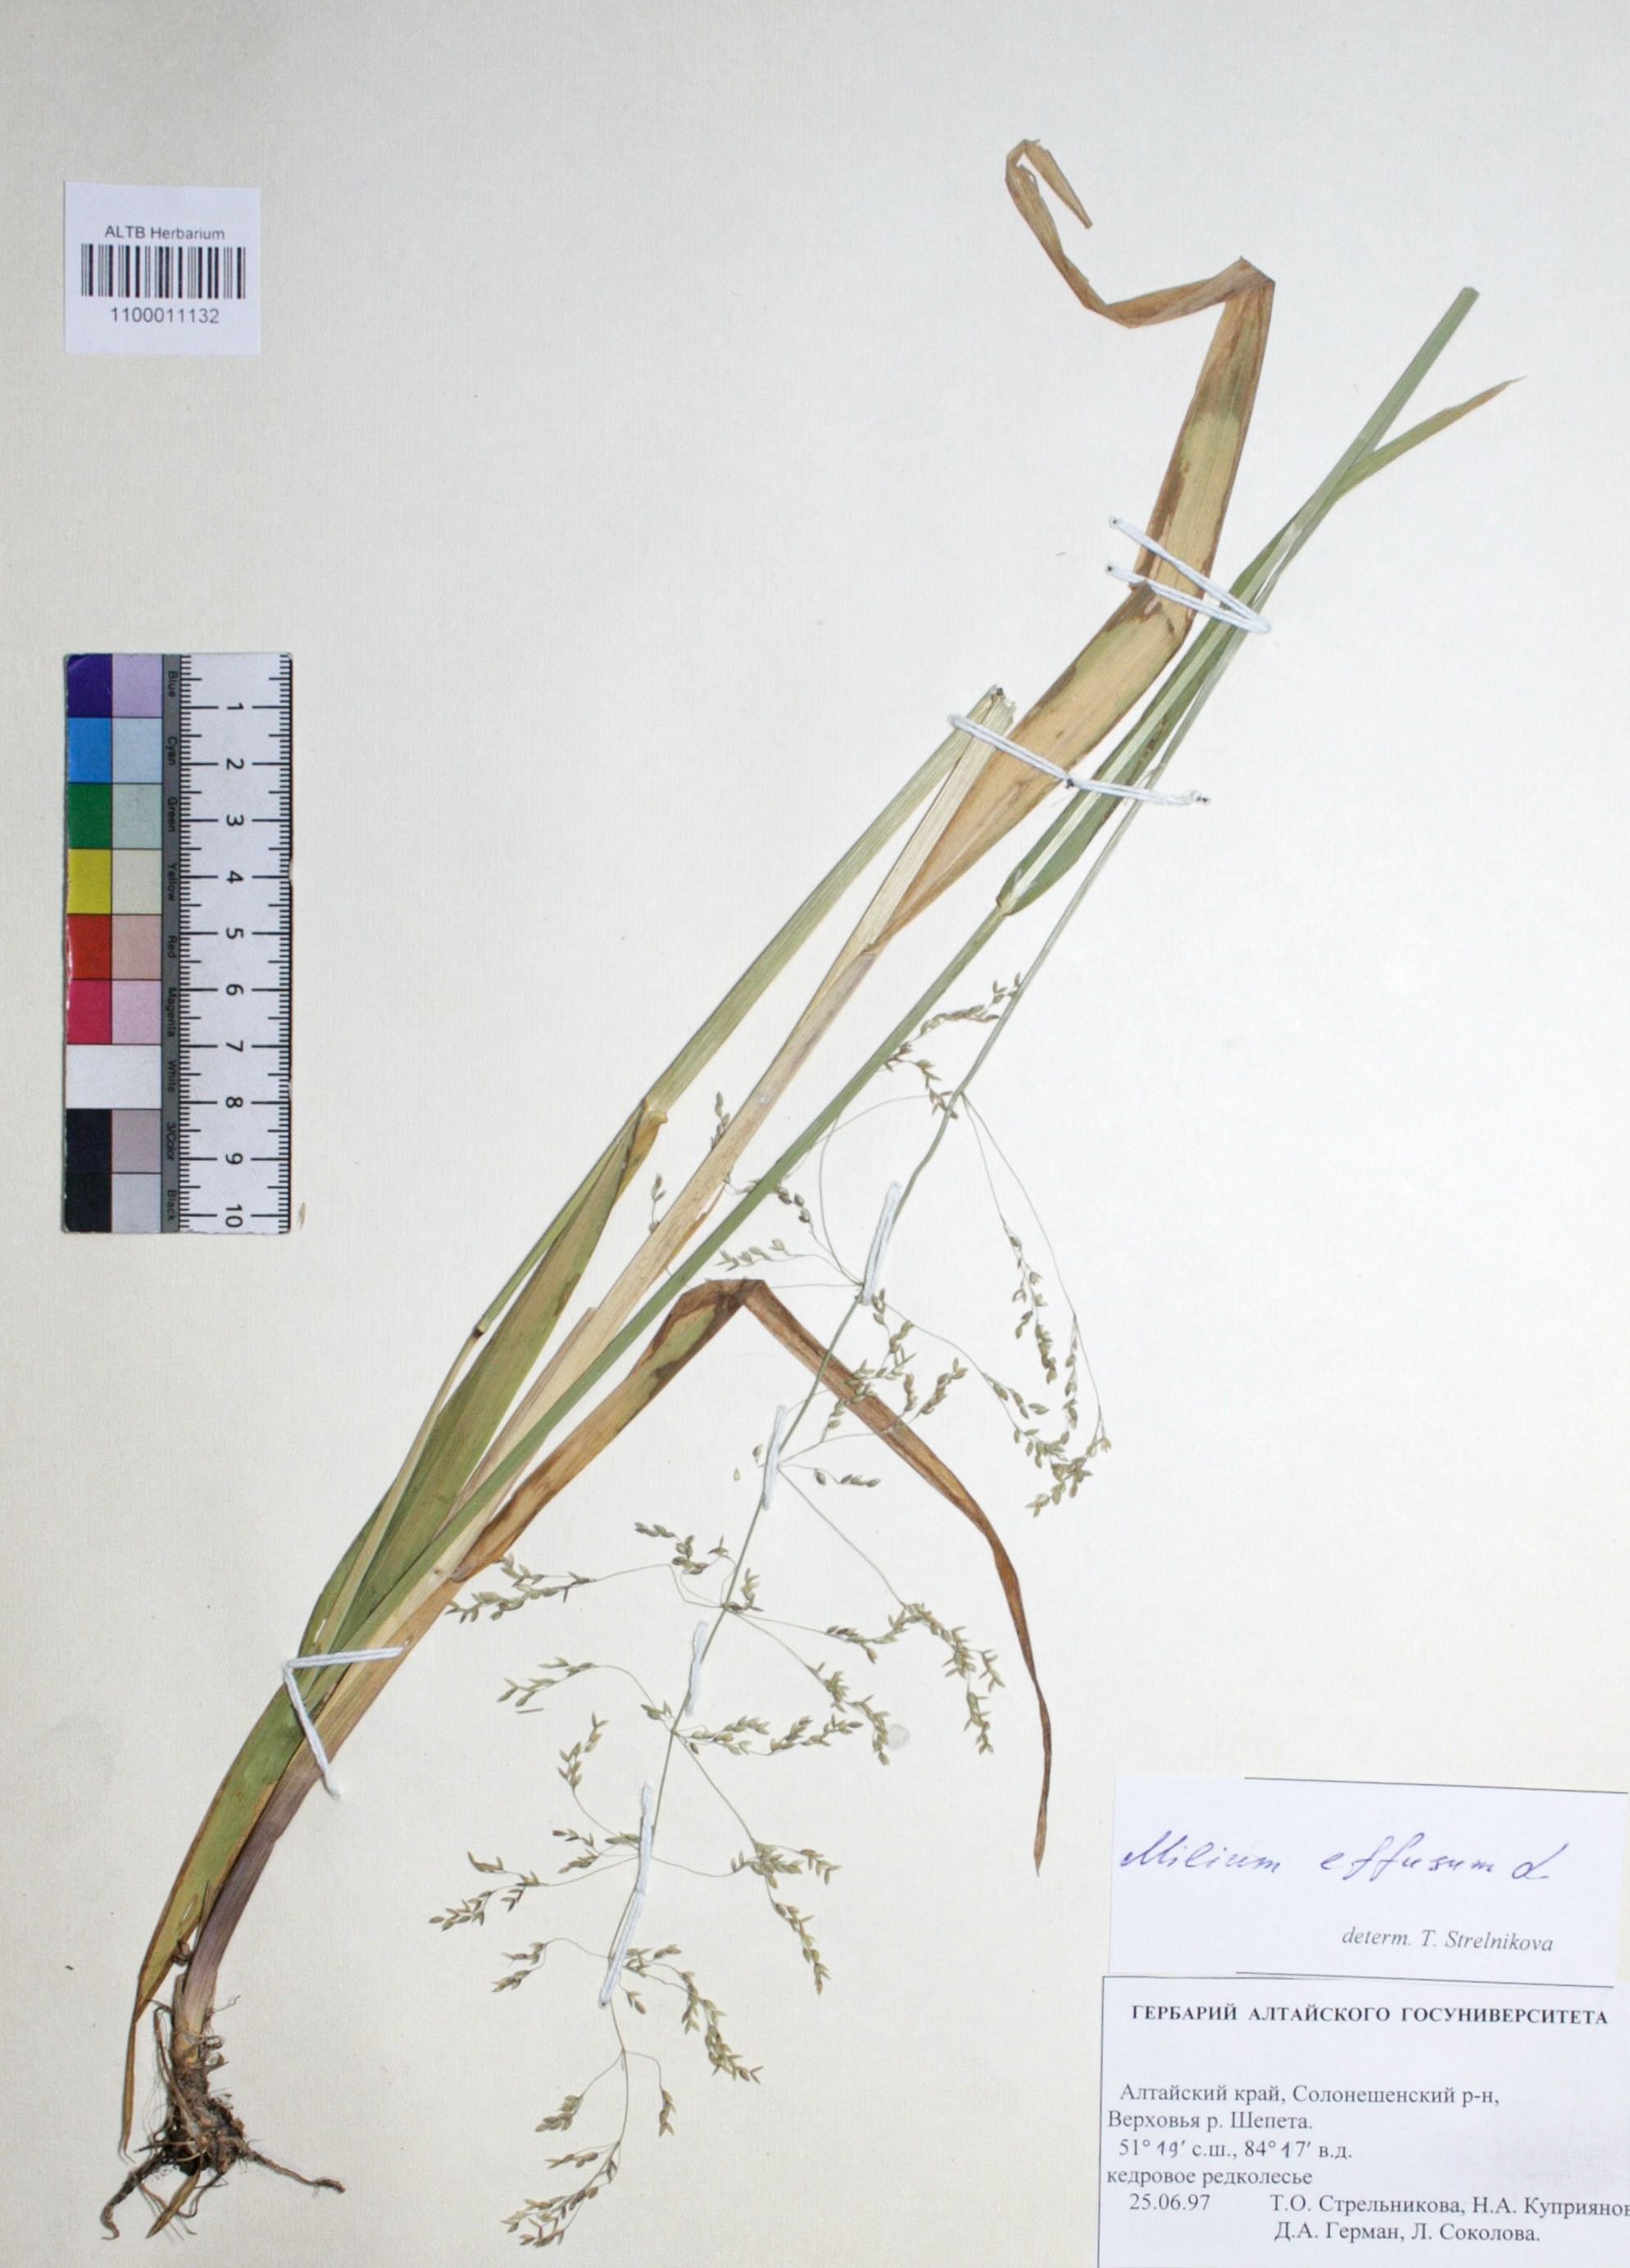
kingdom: Plantae
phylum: Tracheophyta
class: Liliopsida
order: Poales
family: Poaceae
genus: Milium
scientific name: Milium effusum
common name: Wood millet
